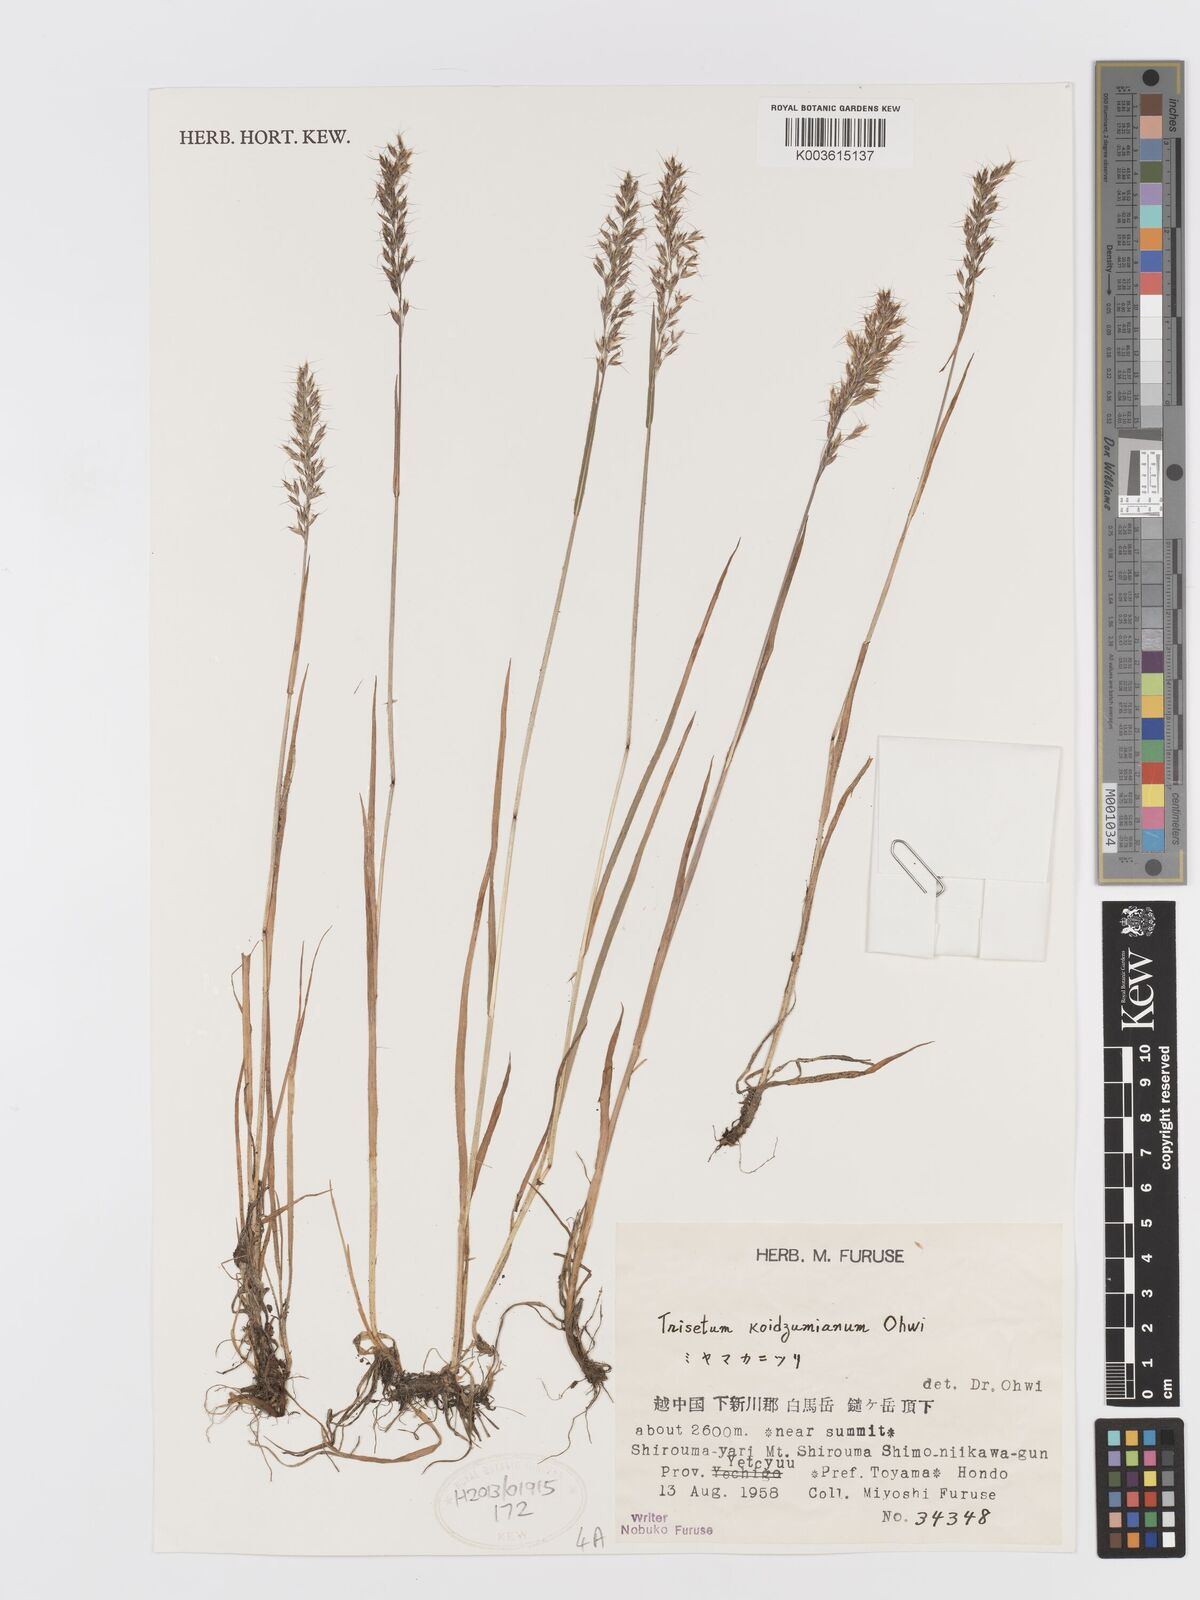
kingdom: Plantae
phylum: Tracheophyta
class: Liliopsida
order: Poales
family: Poaceae
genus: Koeleria
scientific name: Koeleria koidzumiana
